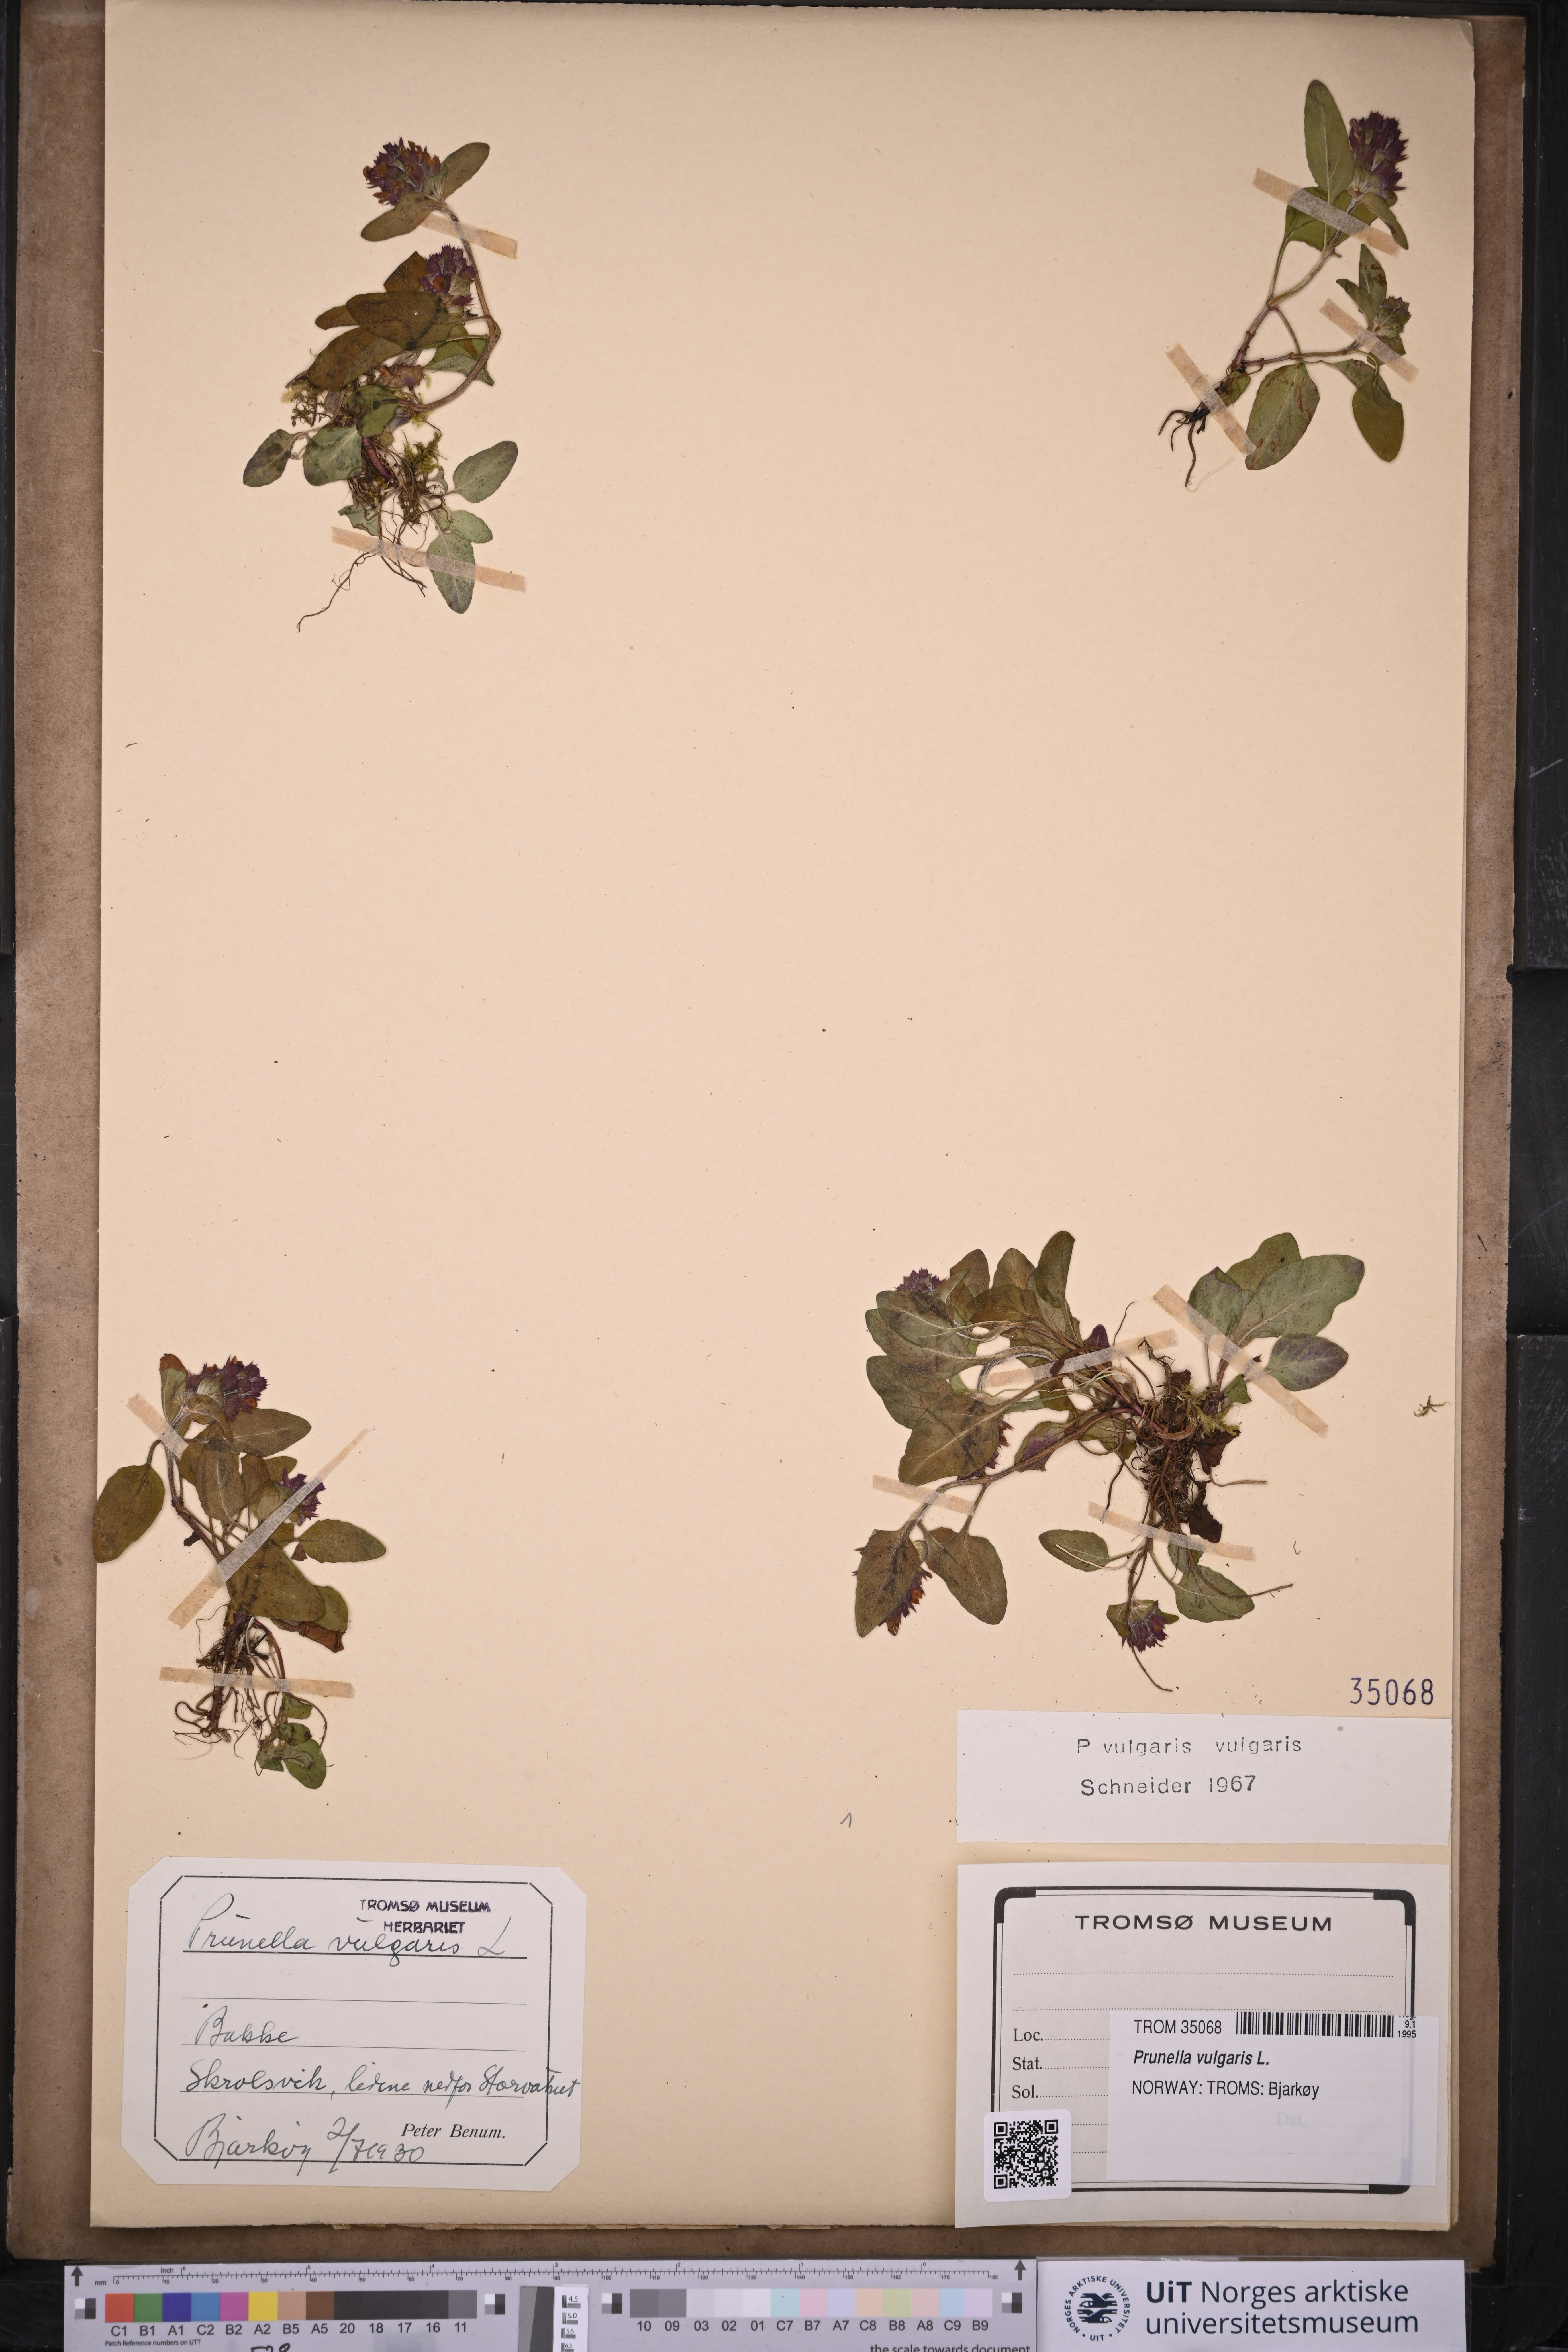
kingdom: Plantae
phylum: Tracheophyta
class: Magnoliopsida
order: Lamiales
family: Lamiaceae
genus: Prunella
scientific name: Prunella vulgaris
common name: Heal-all
